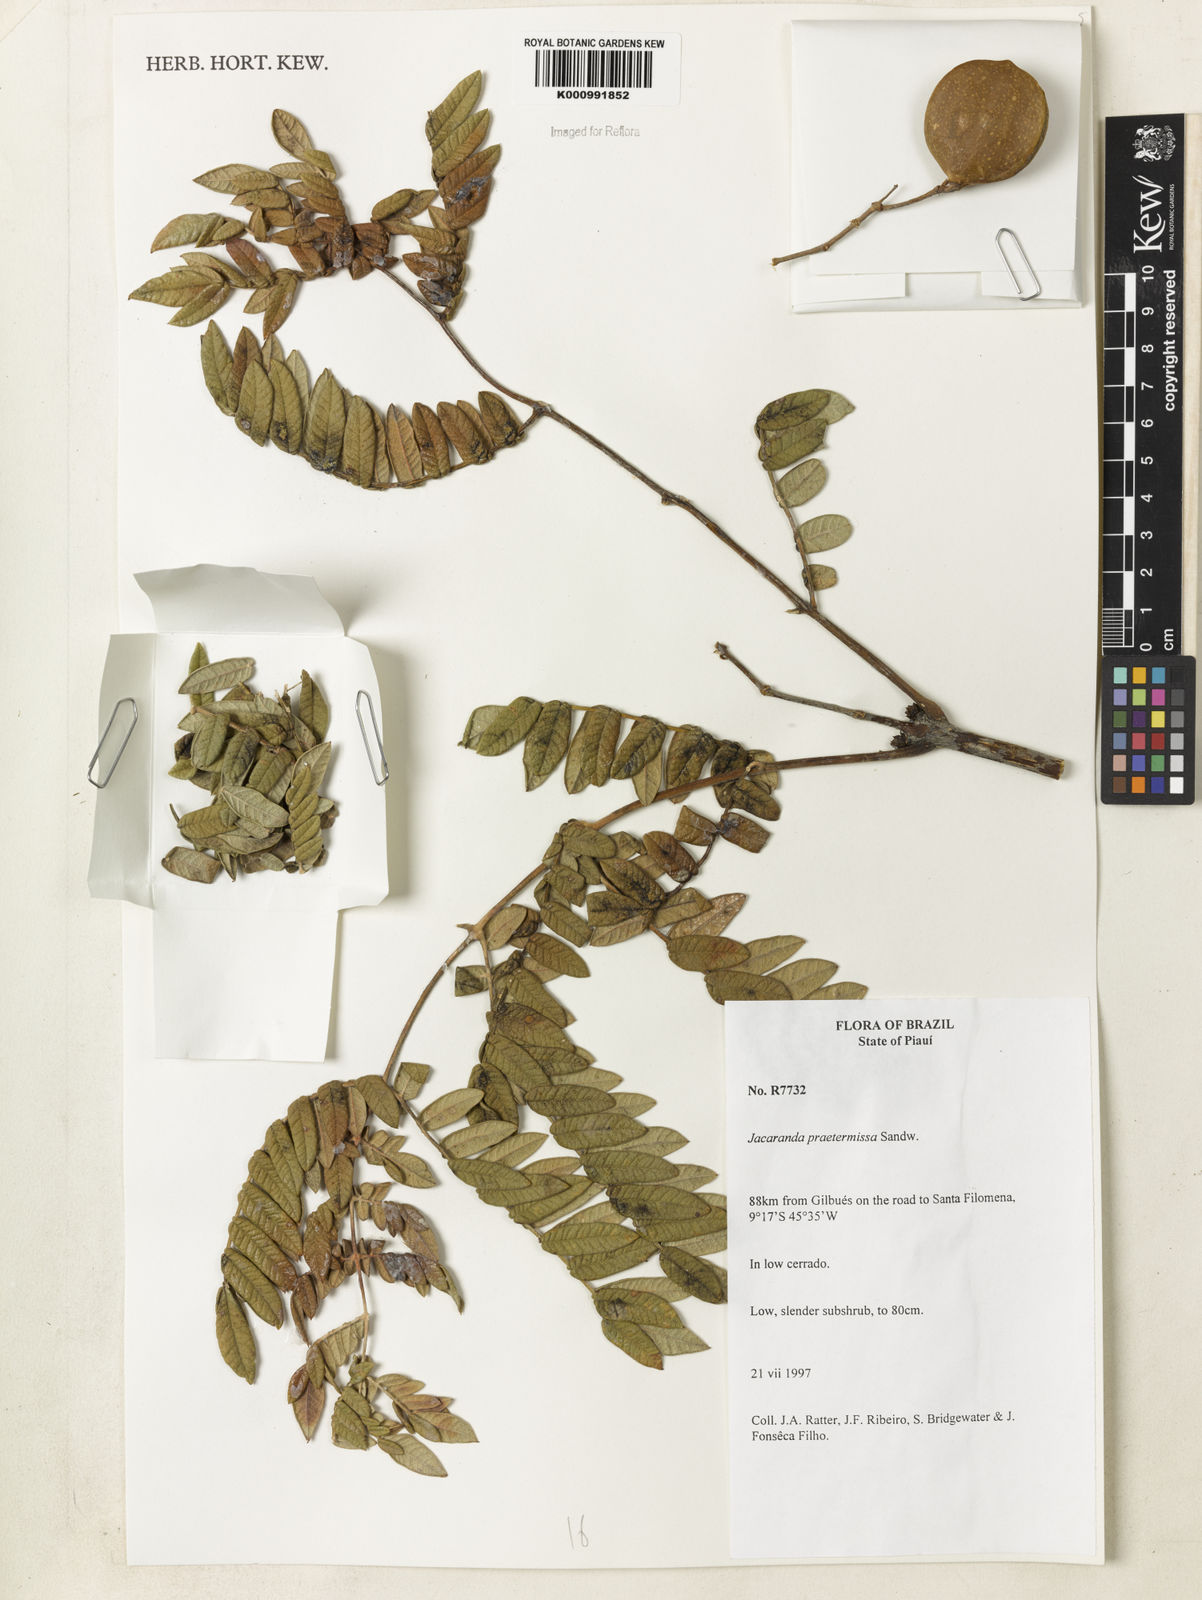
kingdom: Plantae
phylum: Tracheophyta
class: Magnoliopsida
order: Lamiales
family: Bignoniaceae
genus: Jacaranda
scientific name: Jacaranda praetermissa
